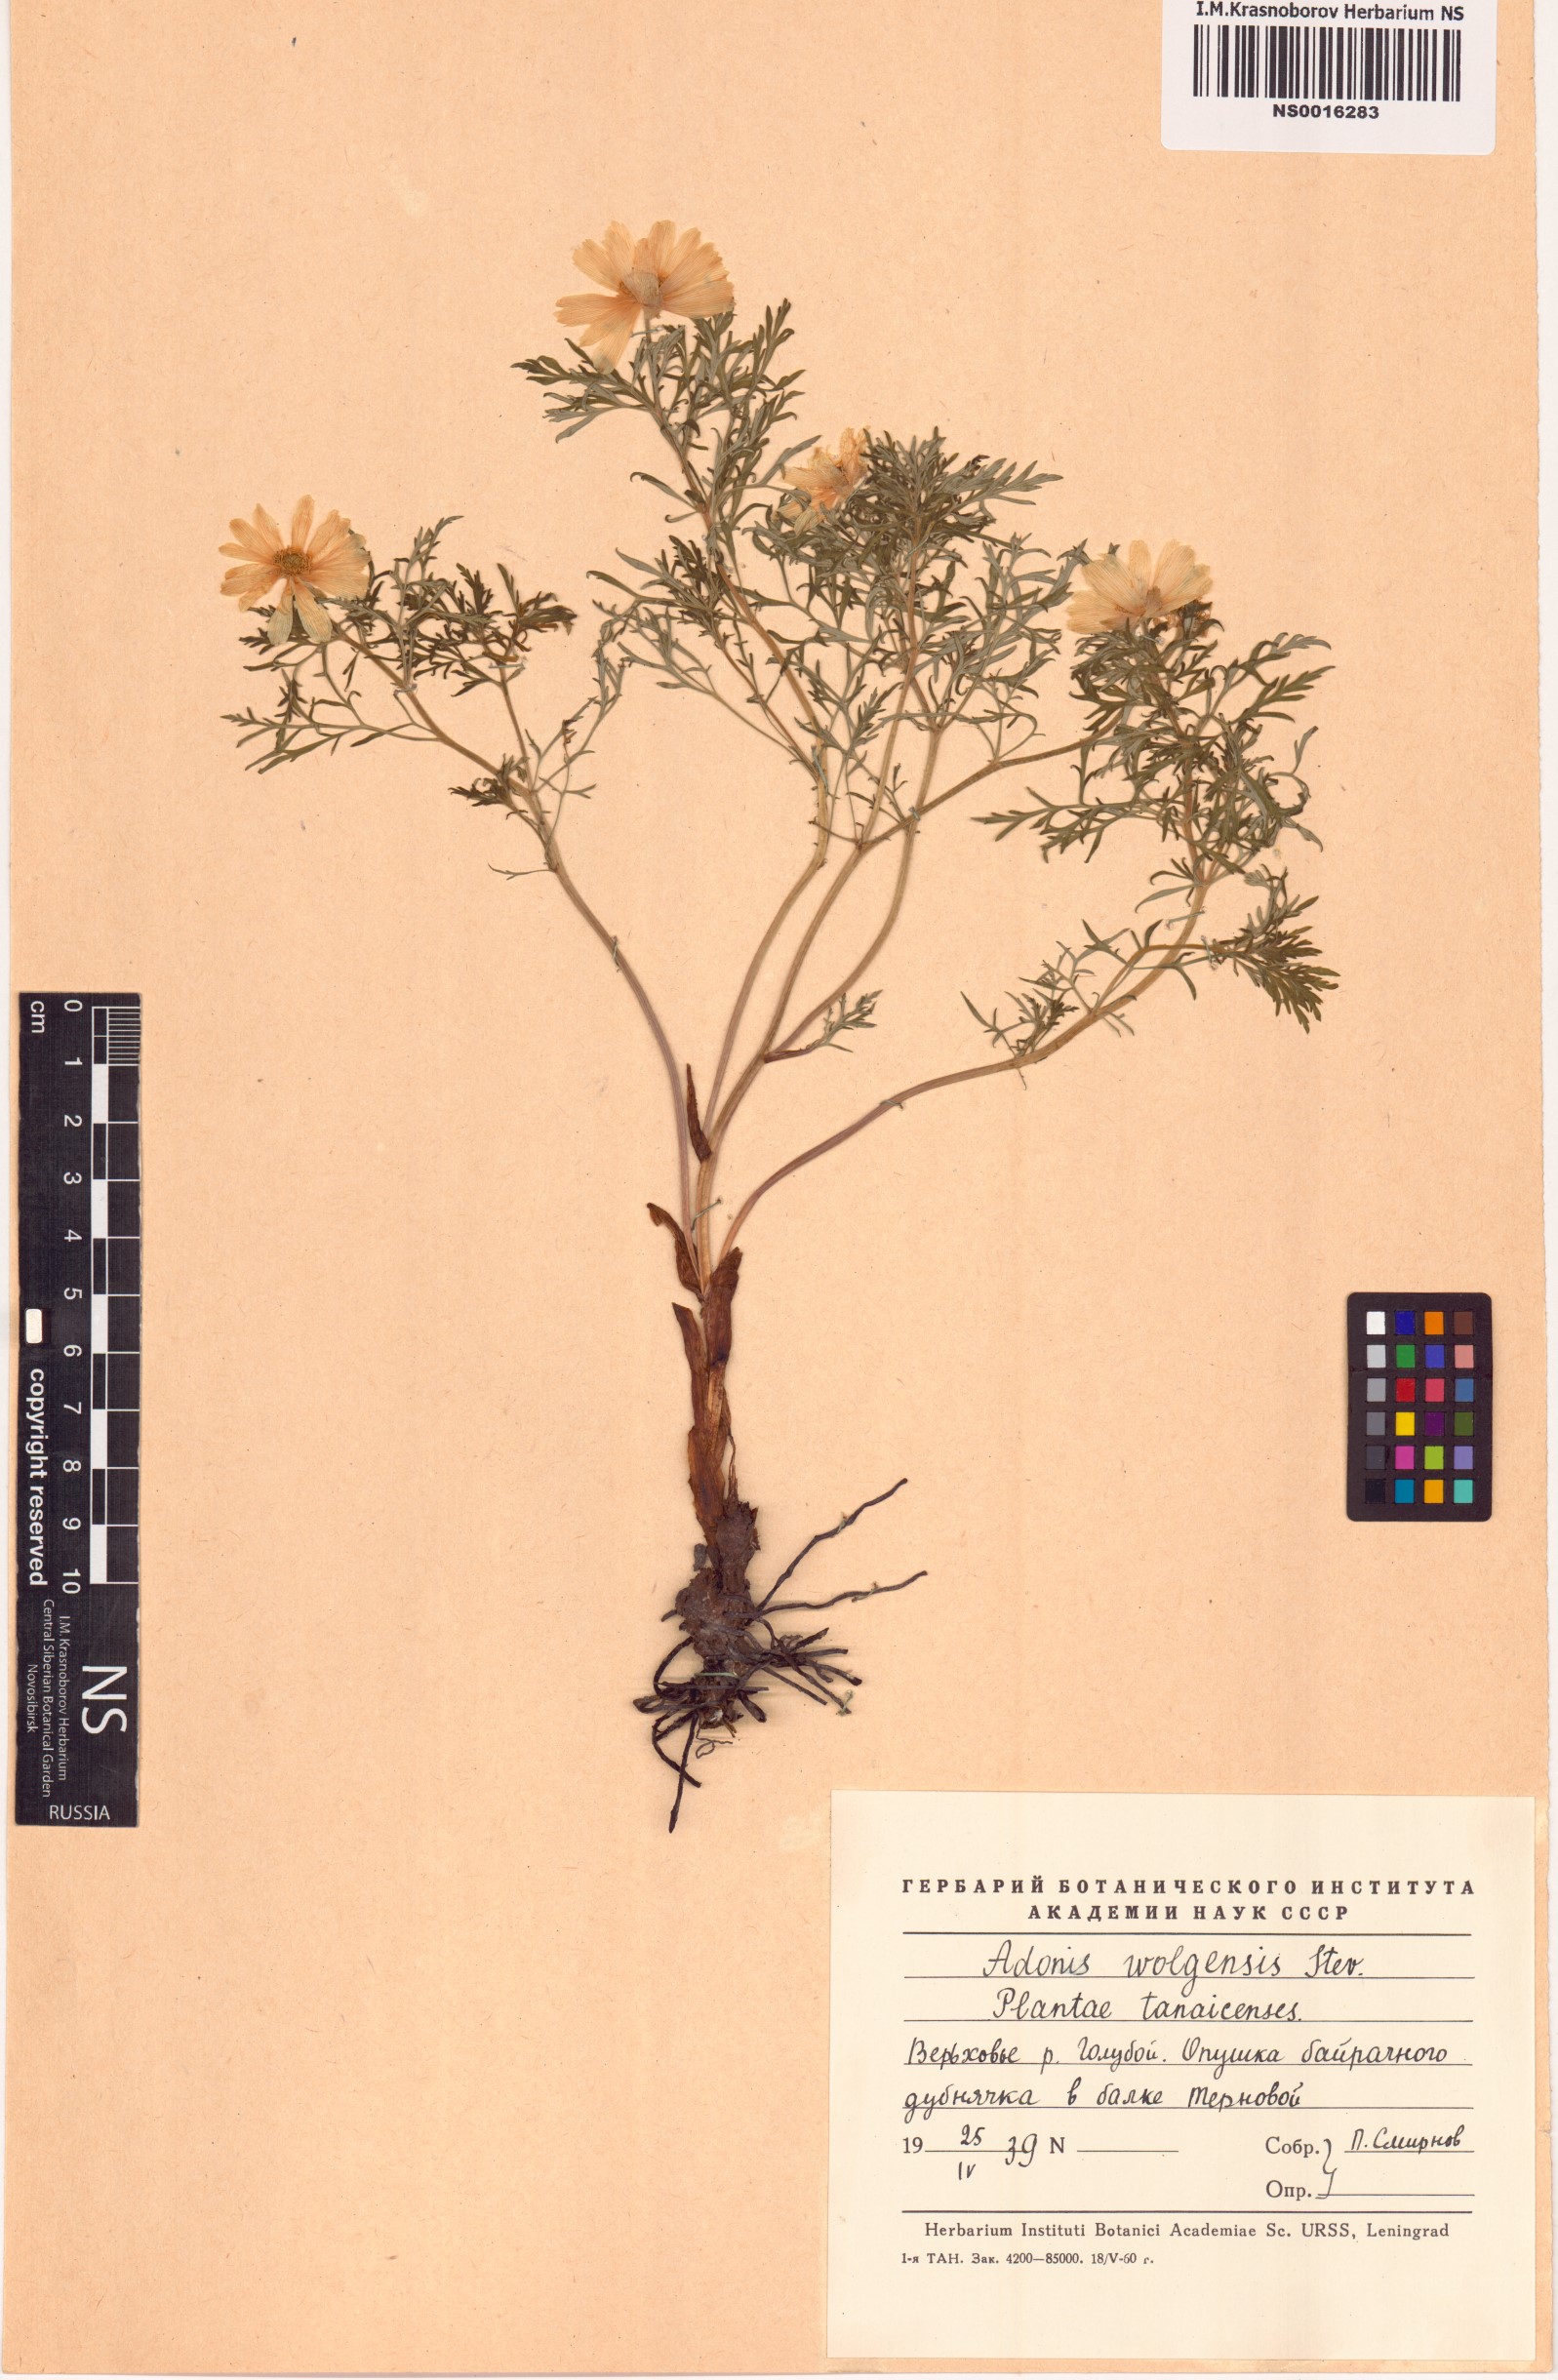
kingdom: Plantae
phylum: Tracheophyta
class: Magnoliopsida
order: Ranunculales
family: Ranunculaceae
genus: Adonis
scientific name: Adonis volgensis
